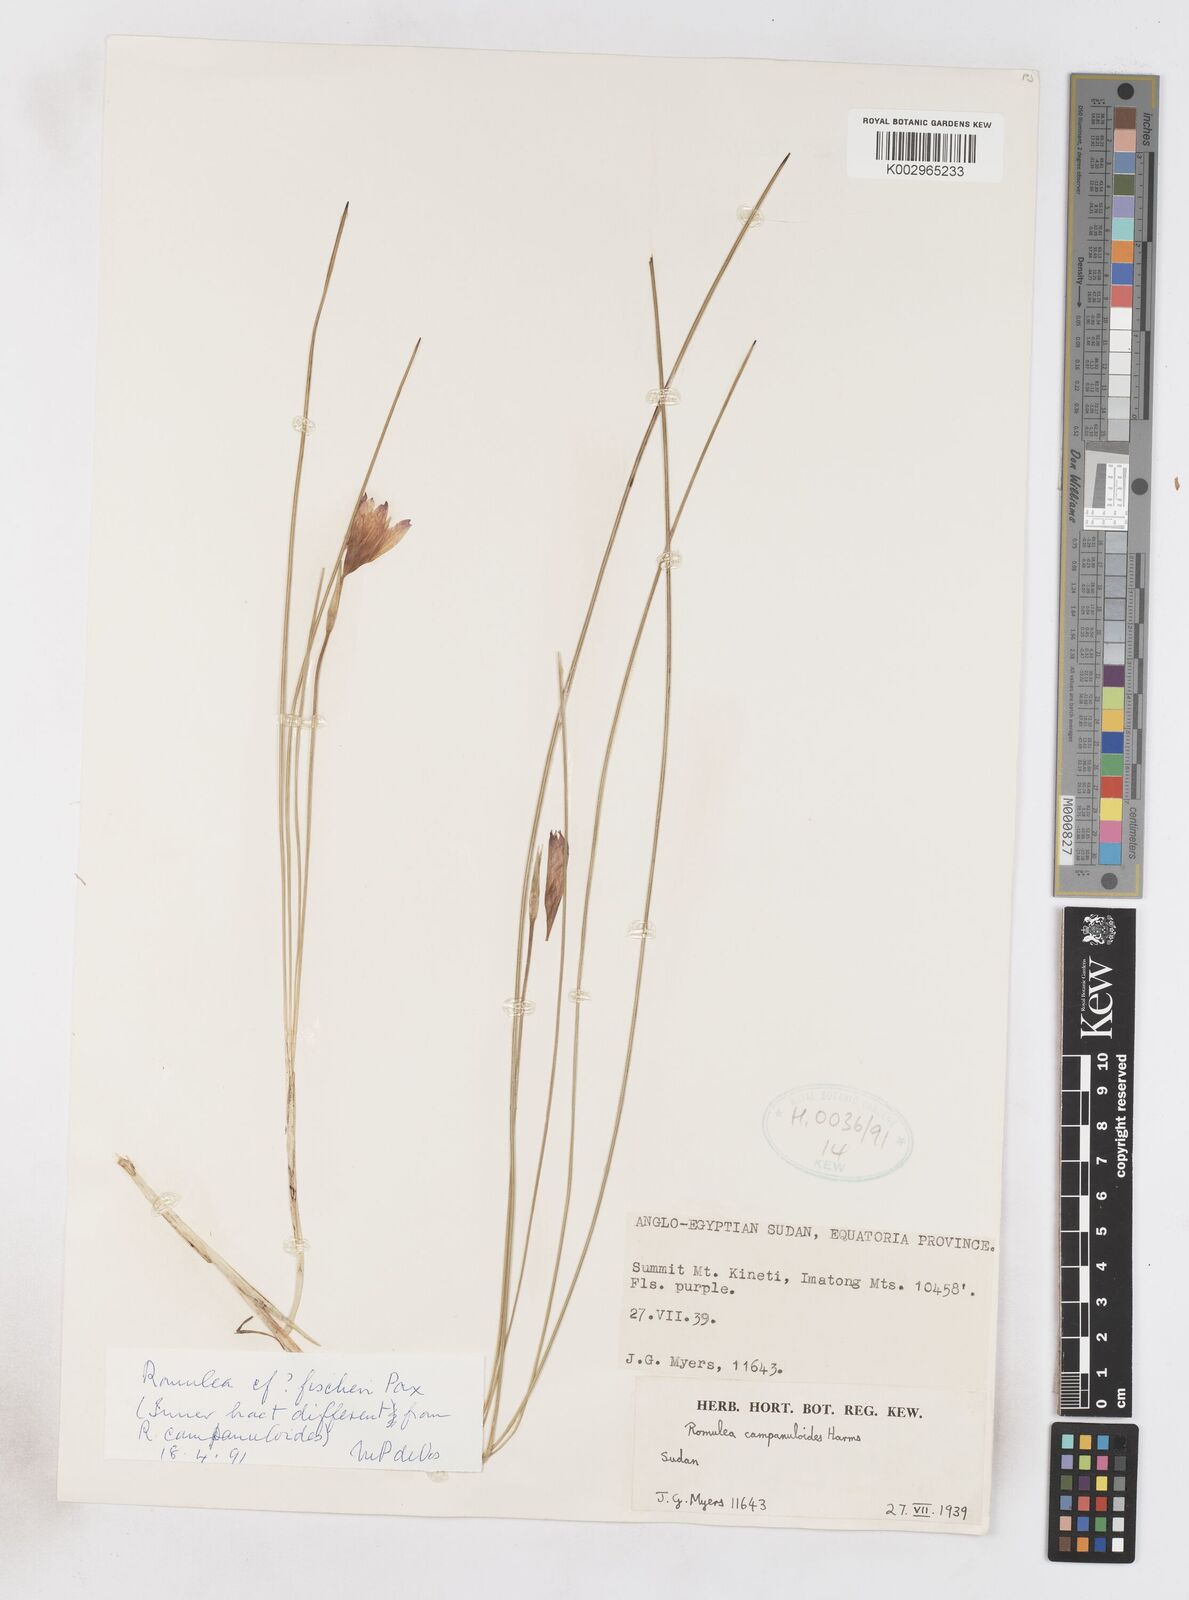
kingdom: Plantae
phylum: Tracheophyta
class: Liliopsida
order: Asparagales
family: Iridaceae
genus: Romulea
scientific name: Romulea fischeri
